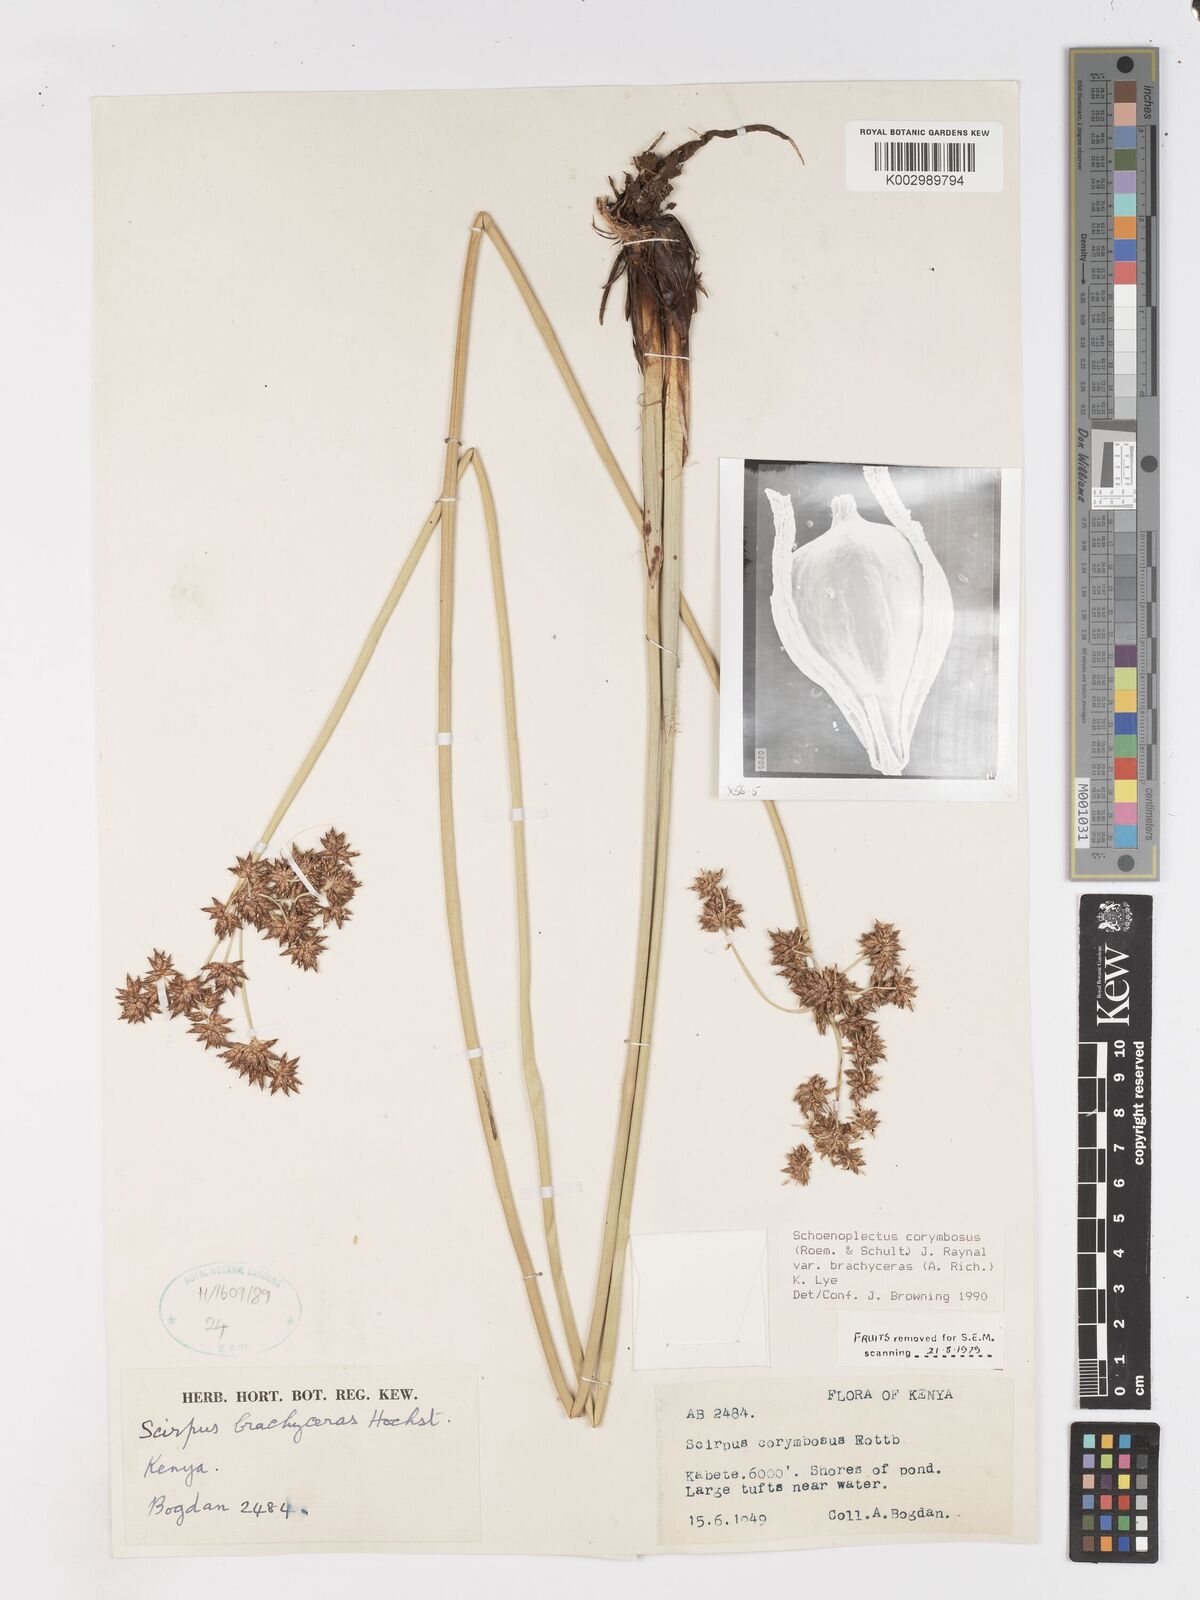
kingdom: Plantae
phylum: Tracheophyta
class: Liliopsida
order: Poales
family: Cyperaceae
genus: Schoenoplectiella
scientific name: Schoenoplectiella brachyceras
